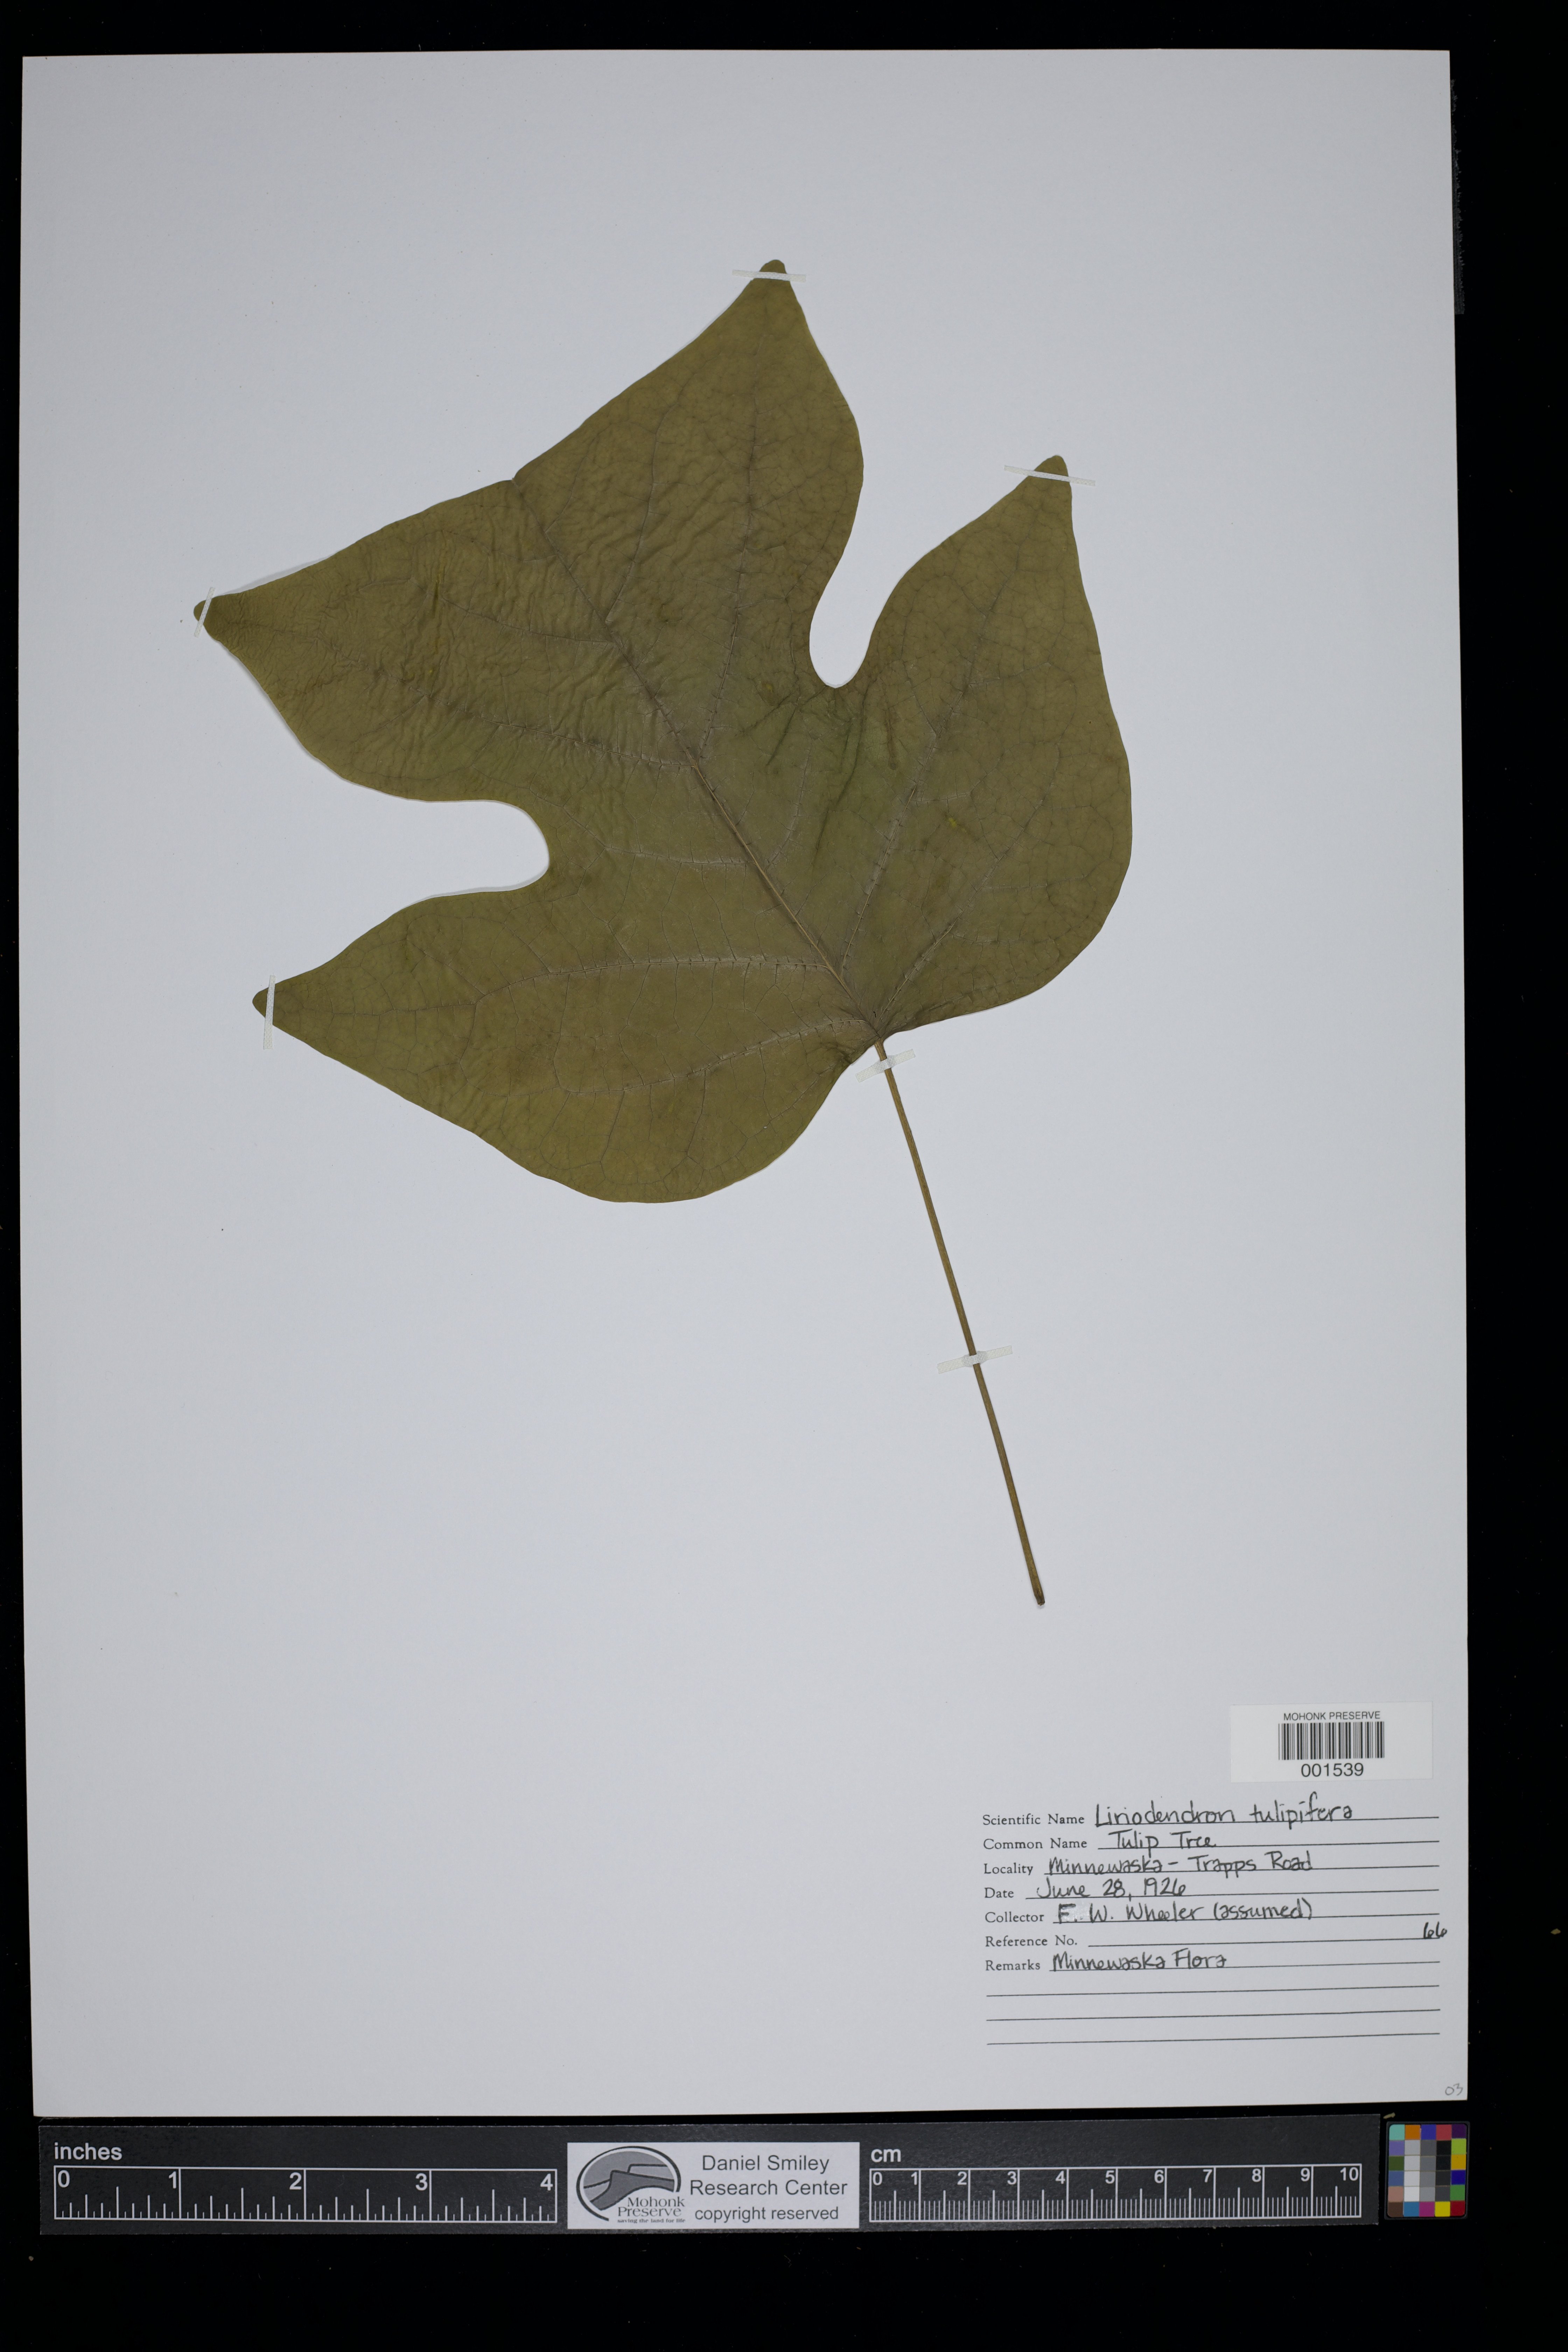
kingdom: Plantae
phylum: Tracheophyta
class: Magnoliopsida
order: Magnoliales
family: Magnoliaceae
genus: Liriodendron
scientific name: Liriodendron tulipifera
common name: Tulip tree
